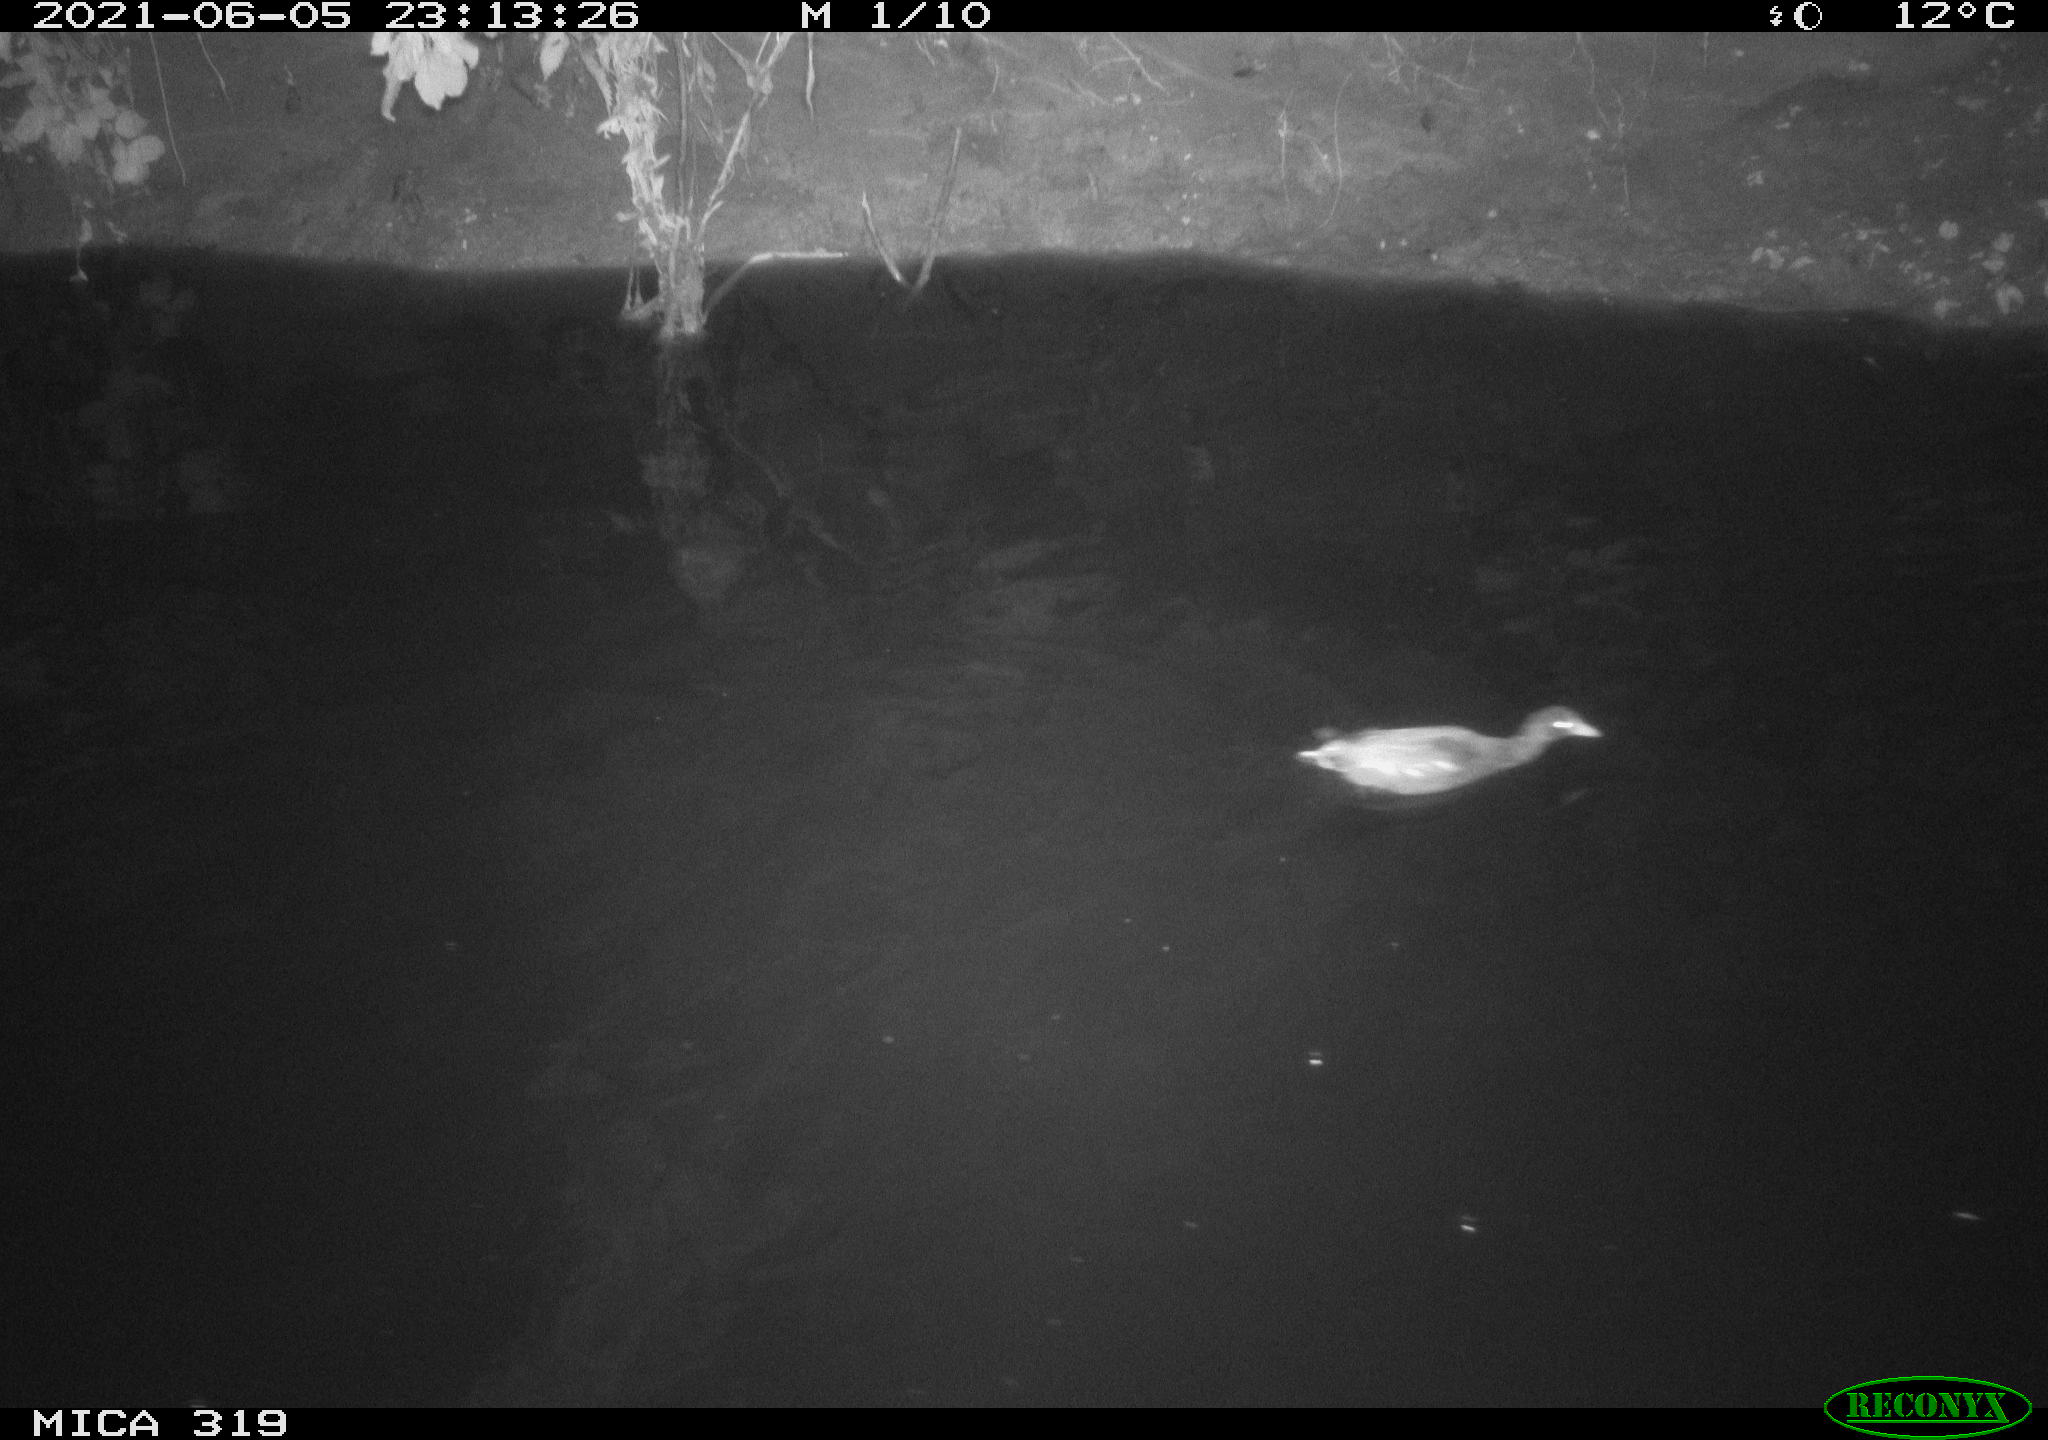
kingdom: Animalia
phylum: Chordata
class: Aves
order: Gruiformes
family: Rallidae
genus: Gallinula
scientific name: Gallinula chloropus
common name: Common moorhen
